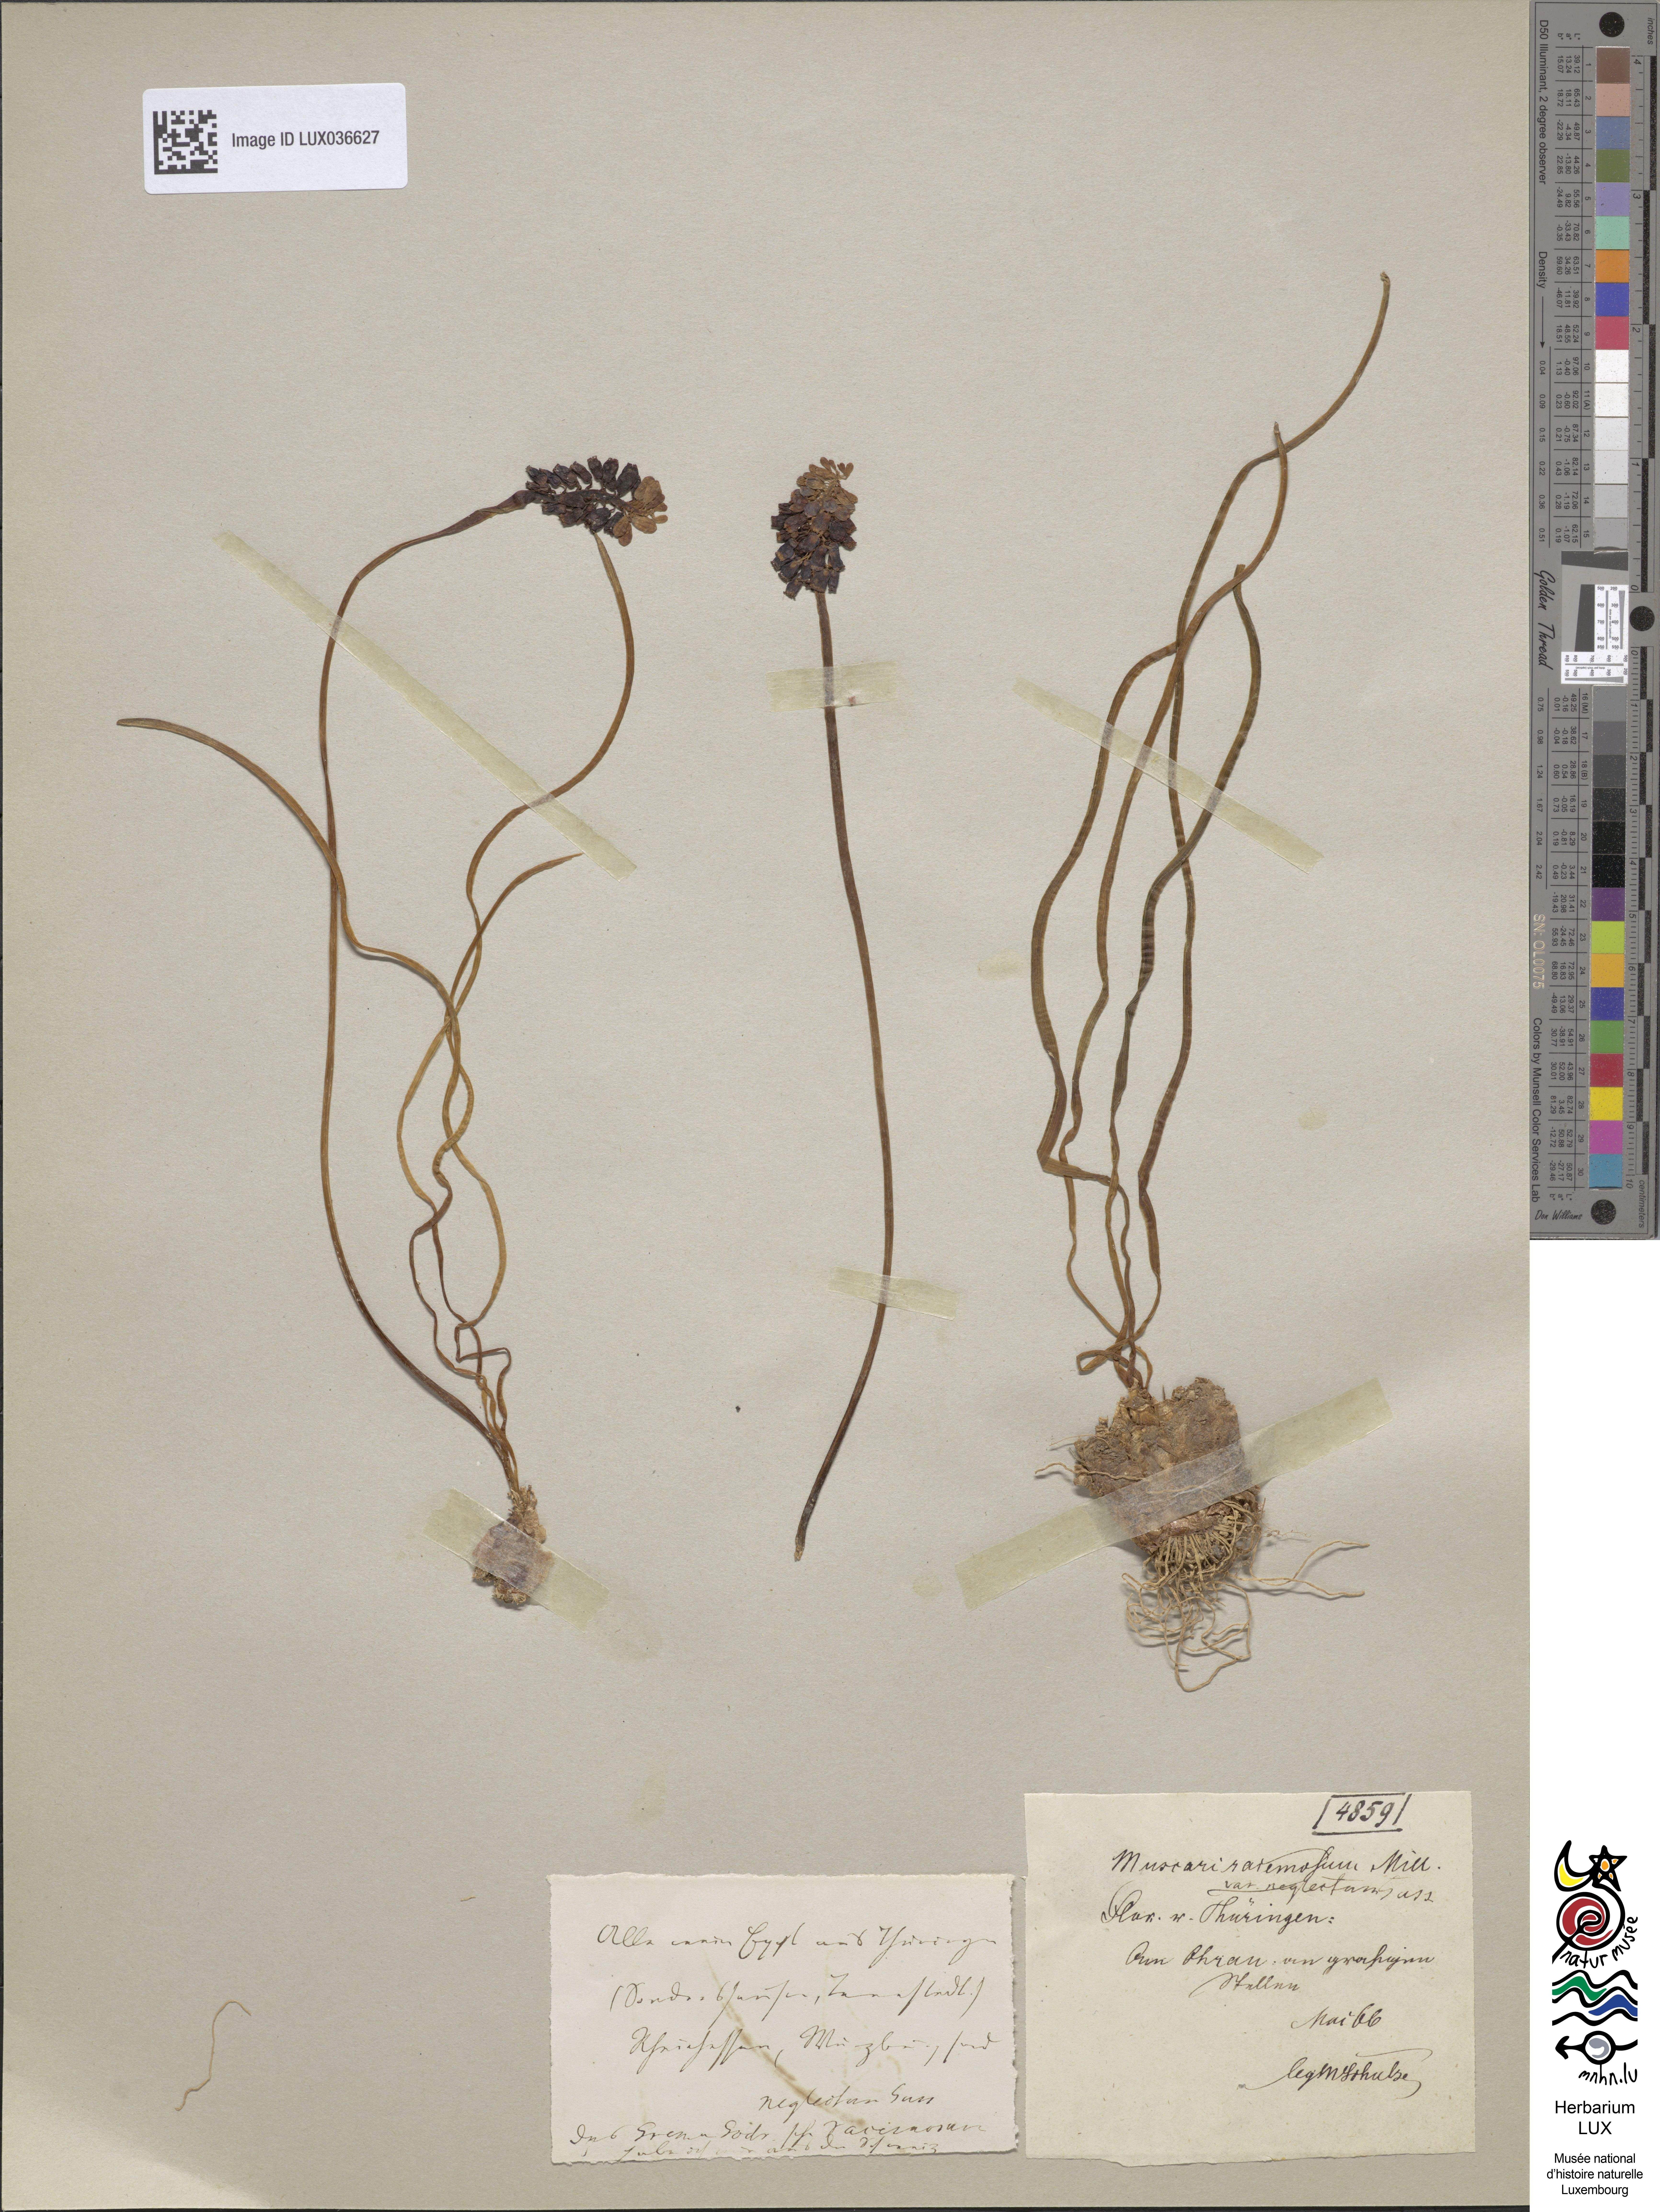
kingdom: Plantae
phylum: Tracheophyta
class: Liliopsida
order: Asparagales
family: Asparagaceae
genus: Muscari
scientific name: Muscari neglectum
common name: Grape-hyacinth
